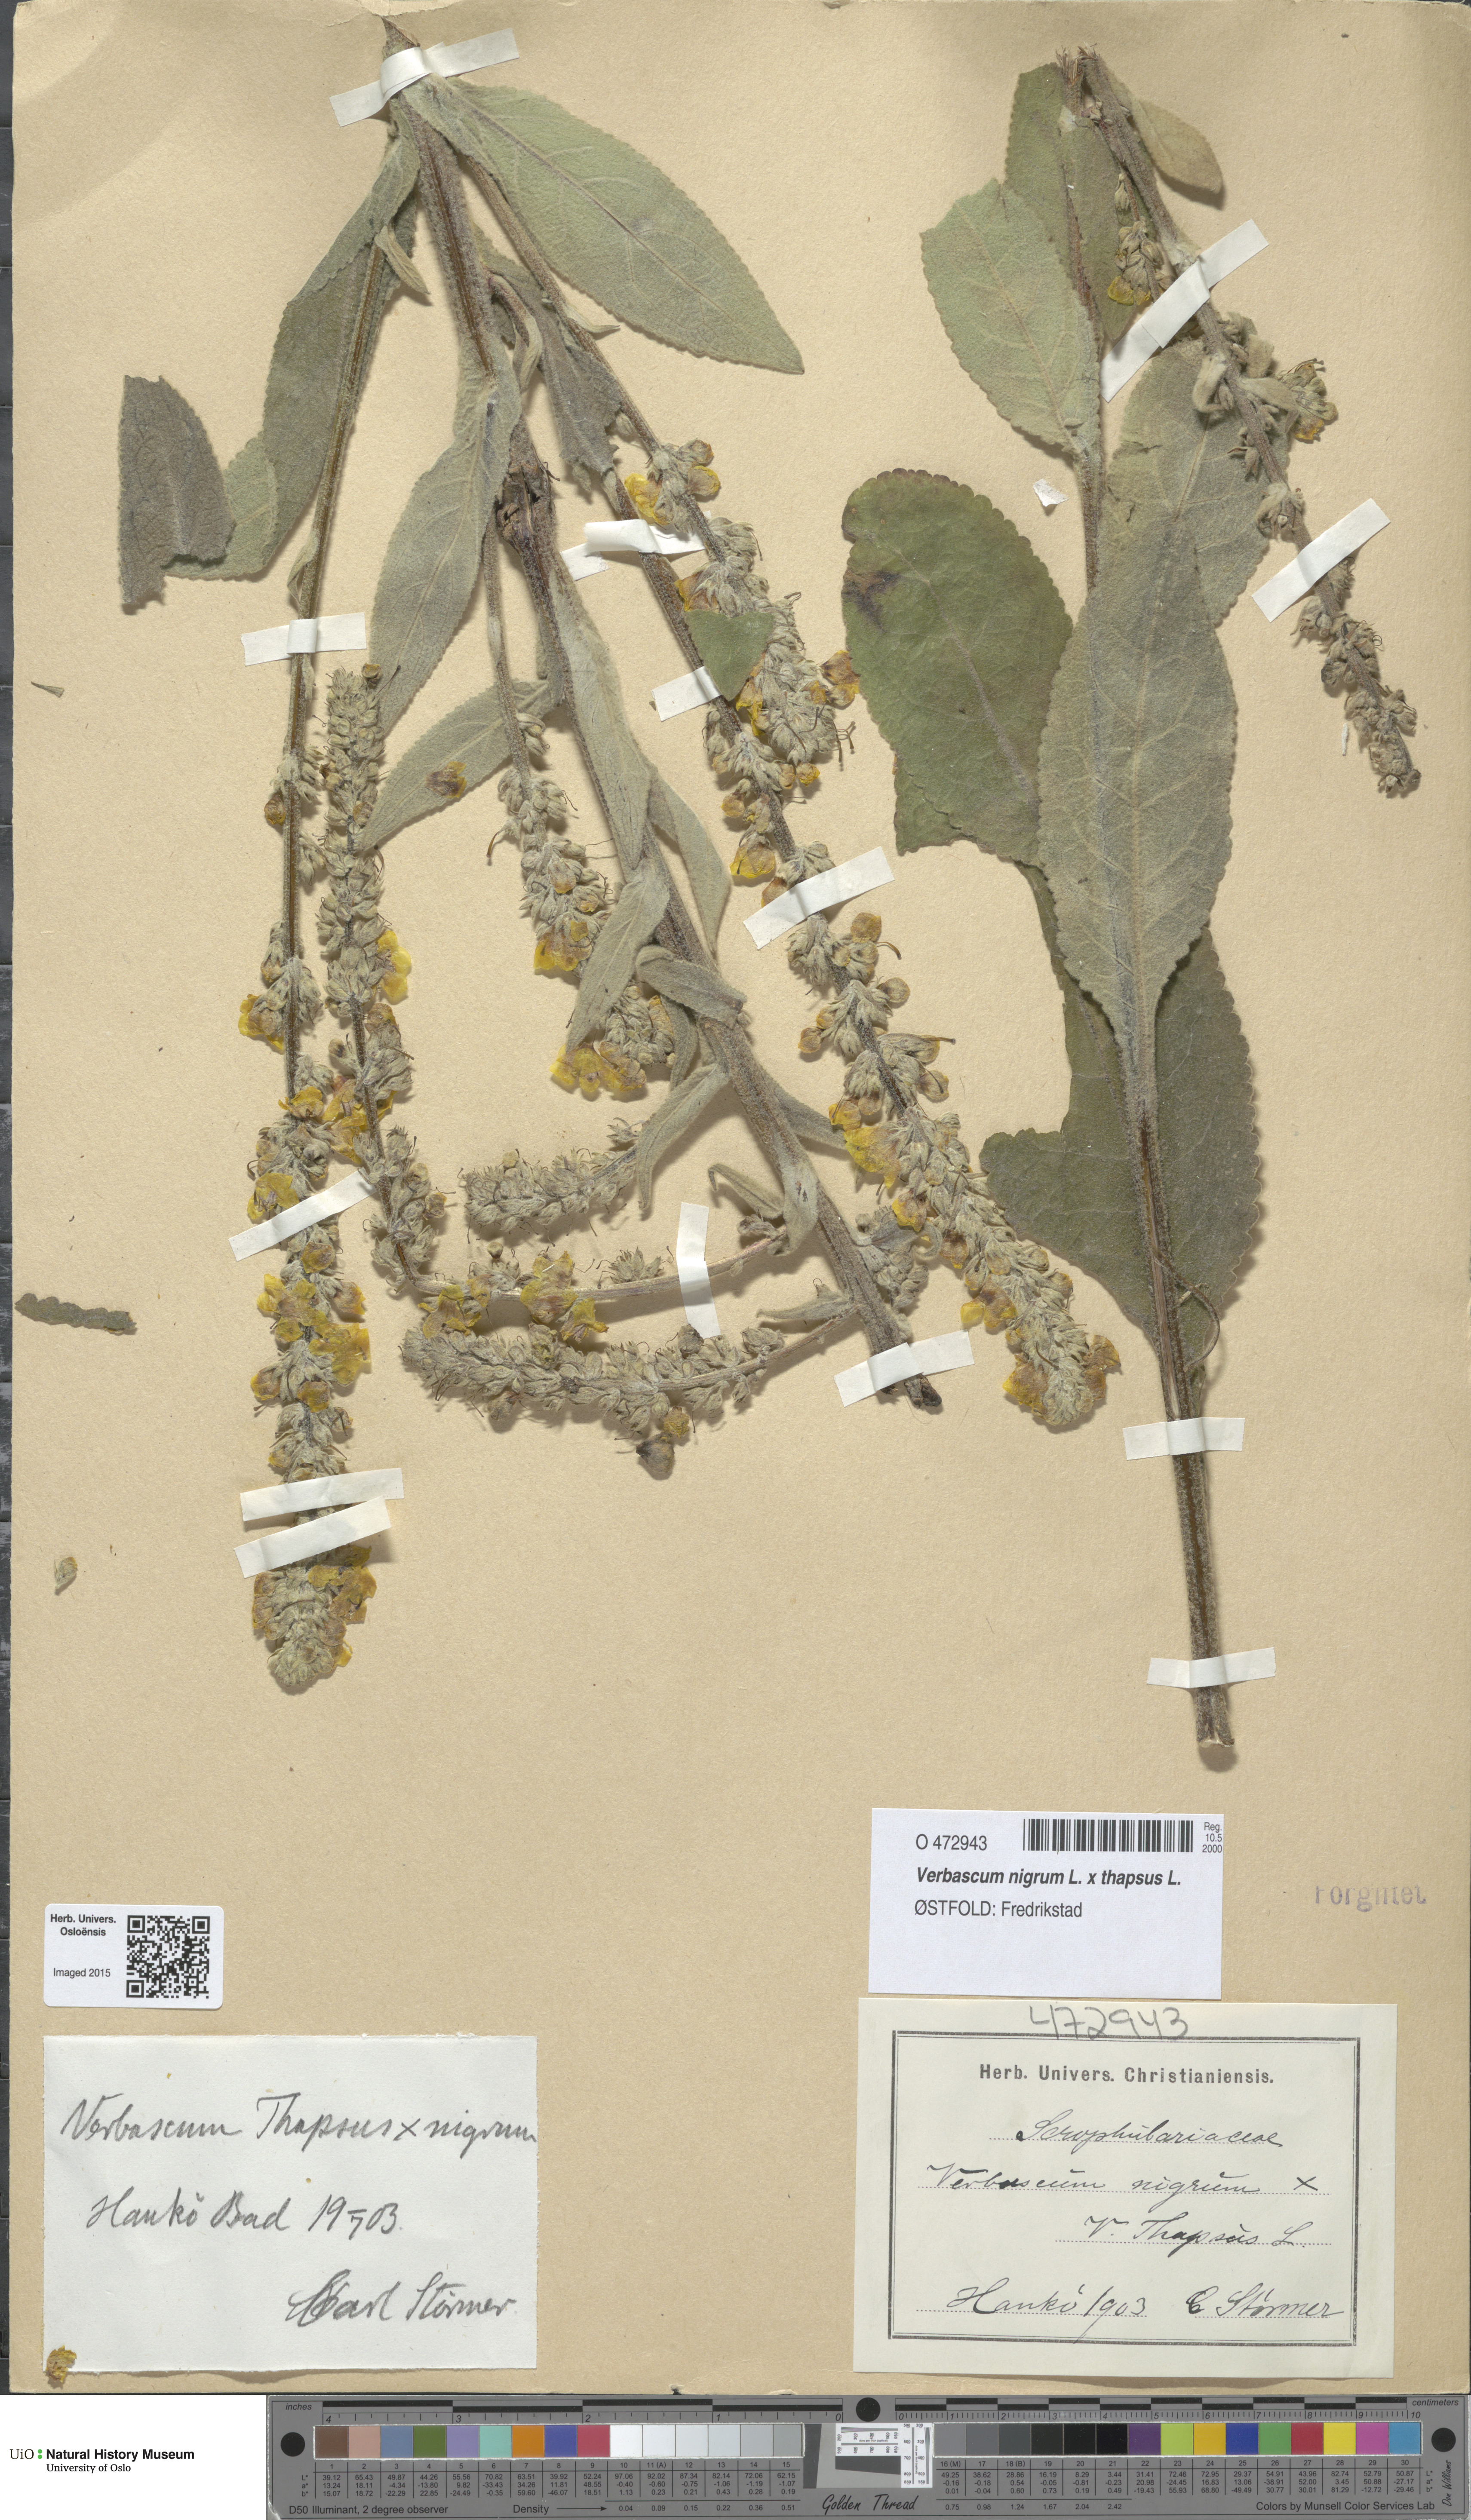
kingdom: Plantae
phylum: Tracheophyta
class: Magnoliopsida
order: Lamiales
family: Scrophulariaceae
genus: Verbascum
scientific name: Verbascum
